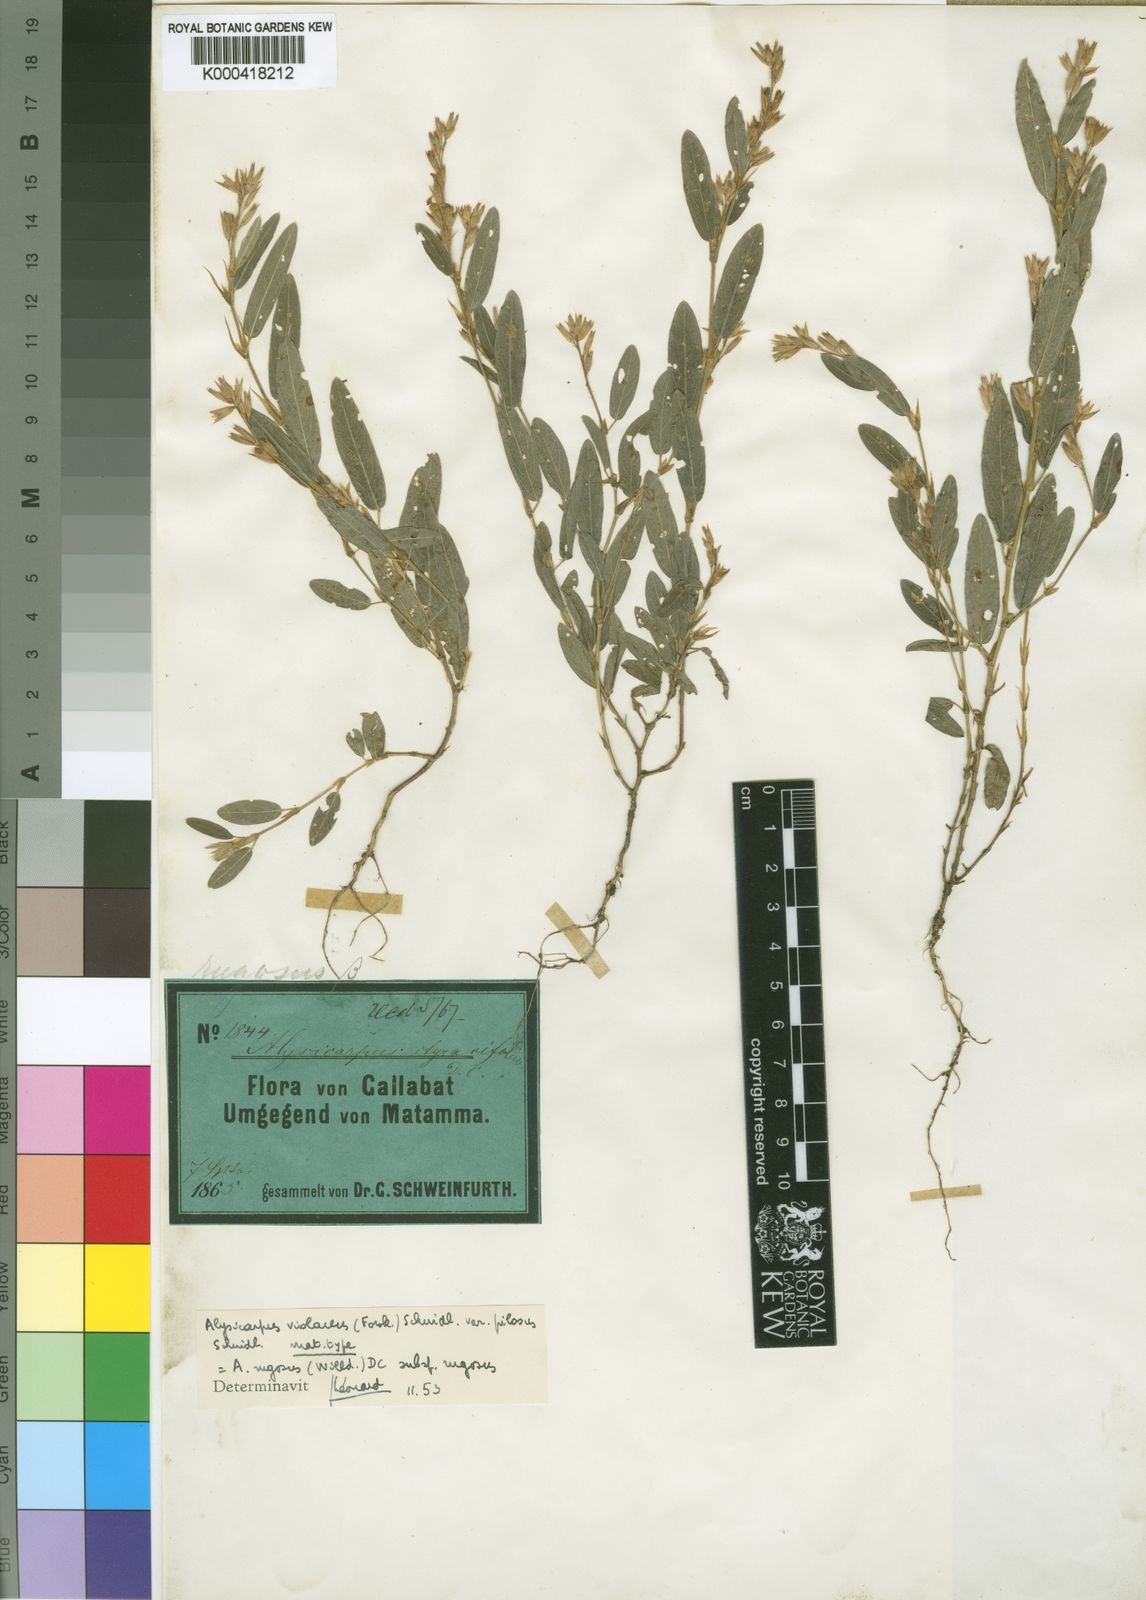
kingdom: Plantae
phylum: Tracheophyta
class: Magnoliopsida
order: Fabales
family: Fabaceae
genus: Alysicarpus
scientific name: Alysicarpus rugosus
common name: Red moneywort
